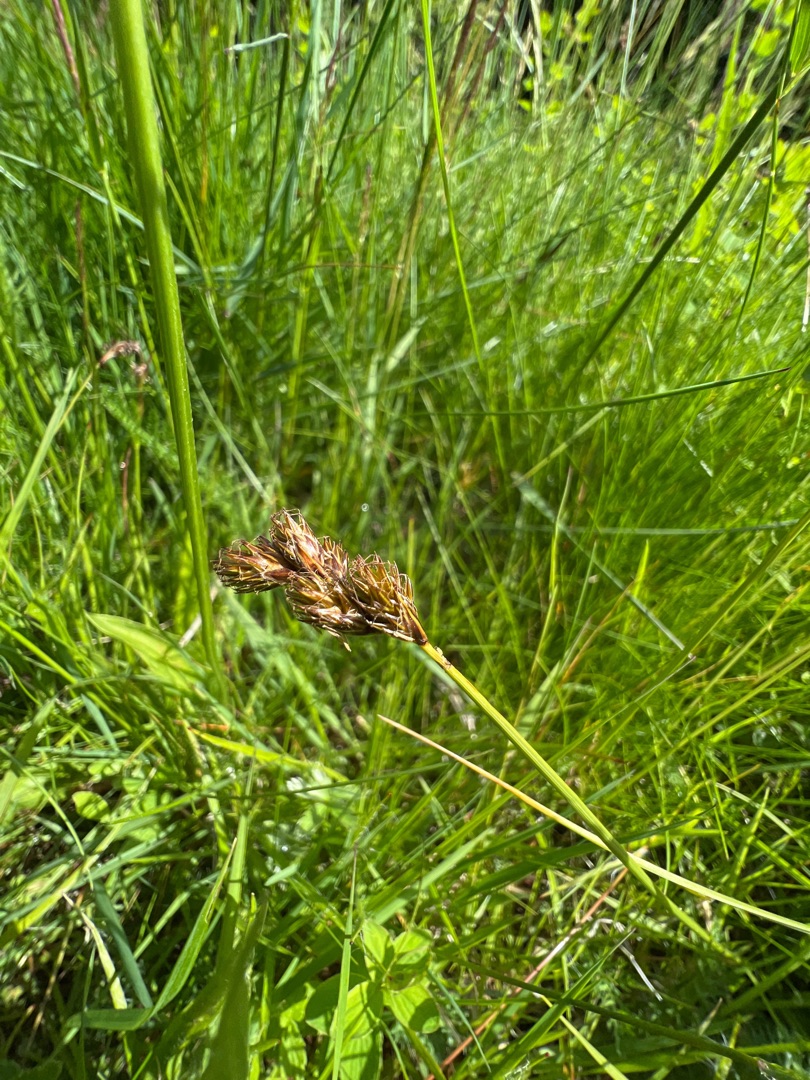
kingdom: Plantae
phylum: Tracheophyta
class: Liliopsida
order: Poales
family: Cyperaceae
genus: Carex
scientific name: Carex leporina
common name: Hare-star
